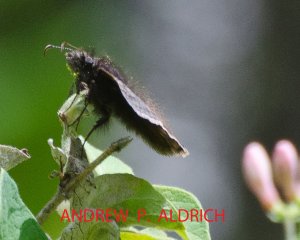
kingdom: Animalia
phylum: Arthropoda
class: Insecta
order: Lepidoptera
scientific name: Lepidoptera
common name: Butterflies
